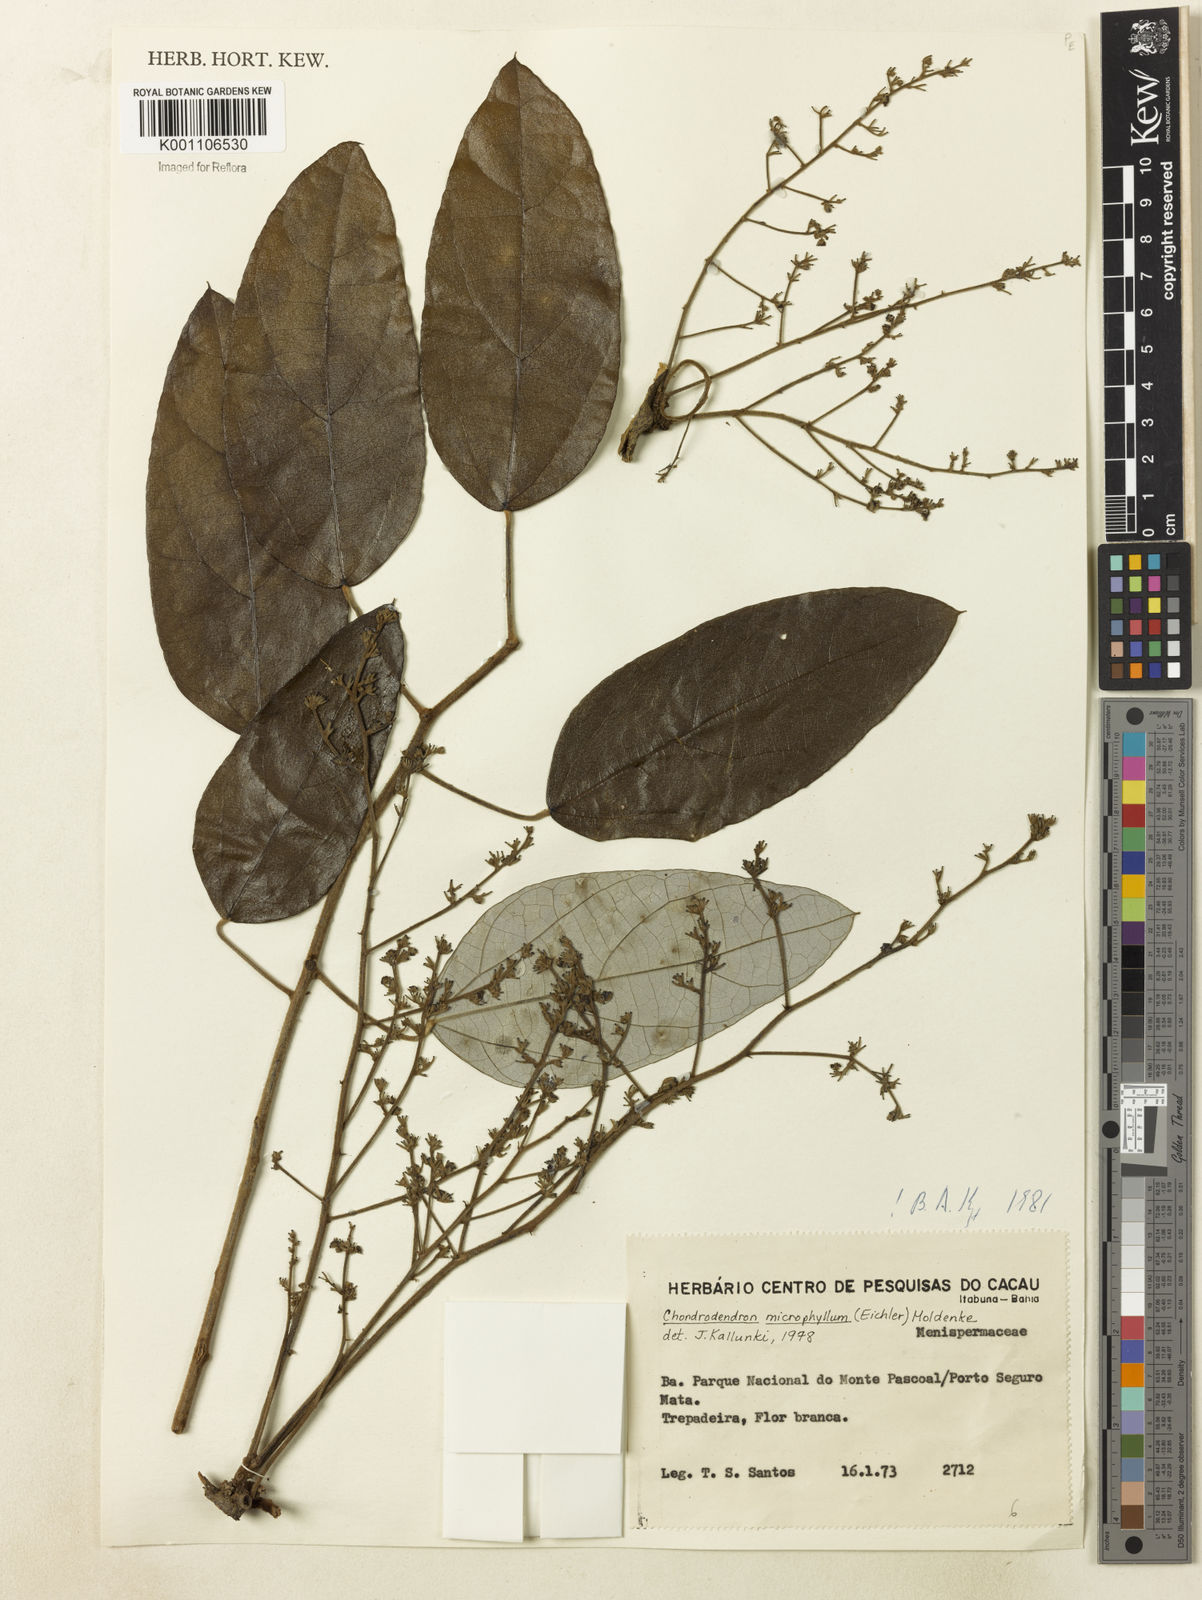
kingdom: Plantae
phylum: Tracheophyta
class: Magnoliopsida
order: Ranunculales
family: Menispermaceae
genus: Chondrodendron
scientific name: Chondrodendron microphyllum
